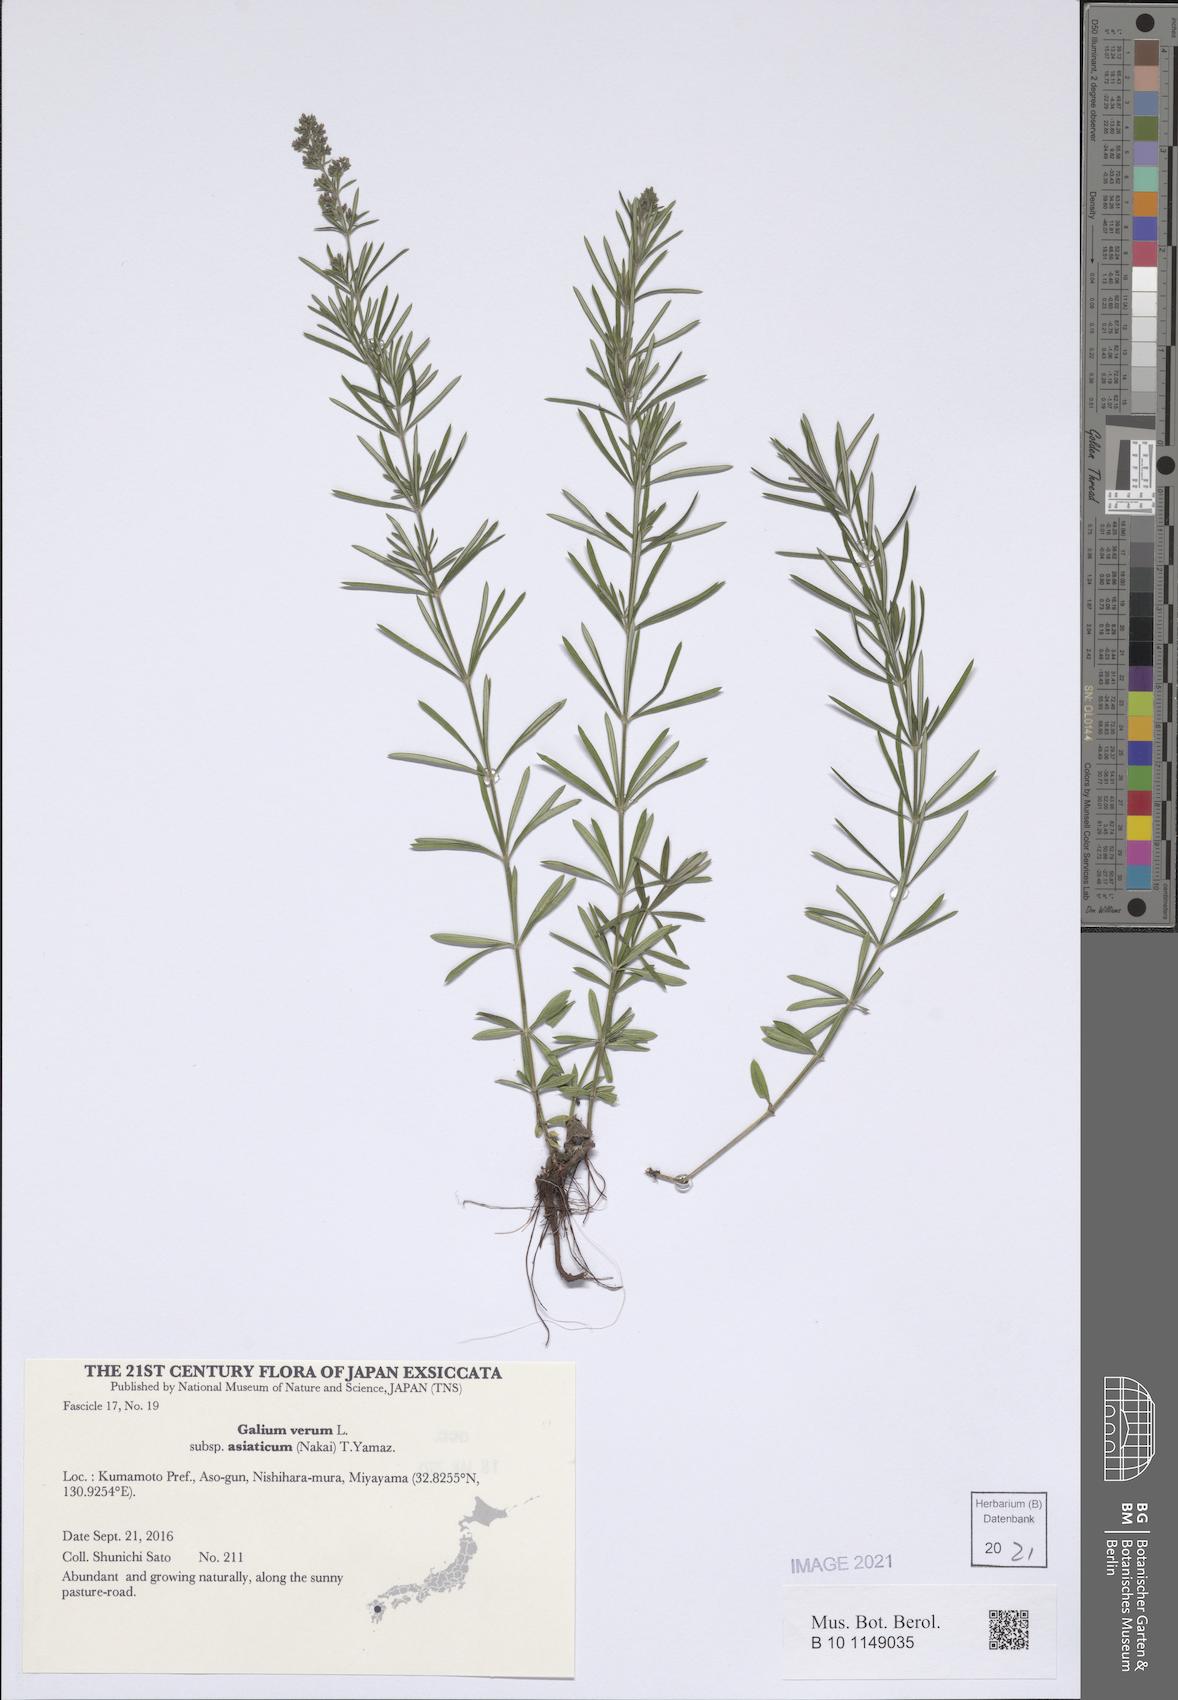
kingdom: Plantae
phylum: Tracheophyta
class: Magnoliopsida
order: Gentianales
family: Rubiaceae
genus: Galium
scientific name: Galium verum
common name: Lady's bedstraw
